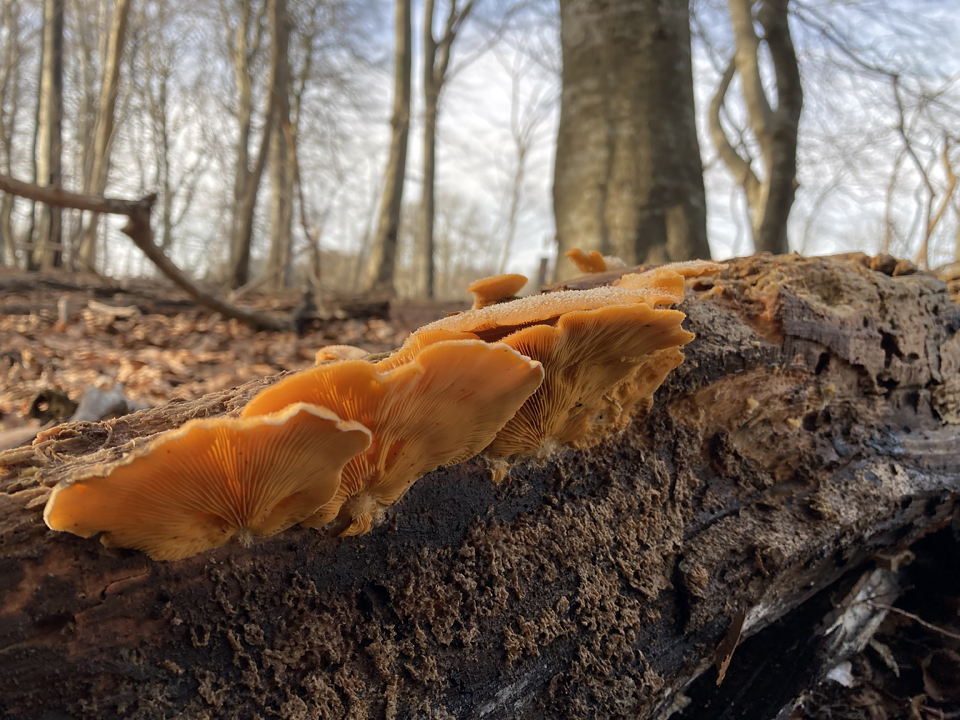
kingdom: Fungi
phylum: Basidiomycota
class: Agaricomycetes
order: Agaricales
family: Phyllotopsidaceae
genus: Phyllotopsis
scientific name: Phyllotopsis nidulans
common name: okkerblad
